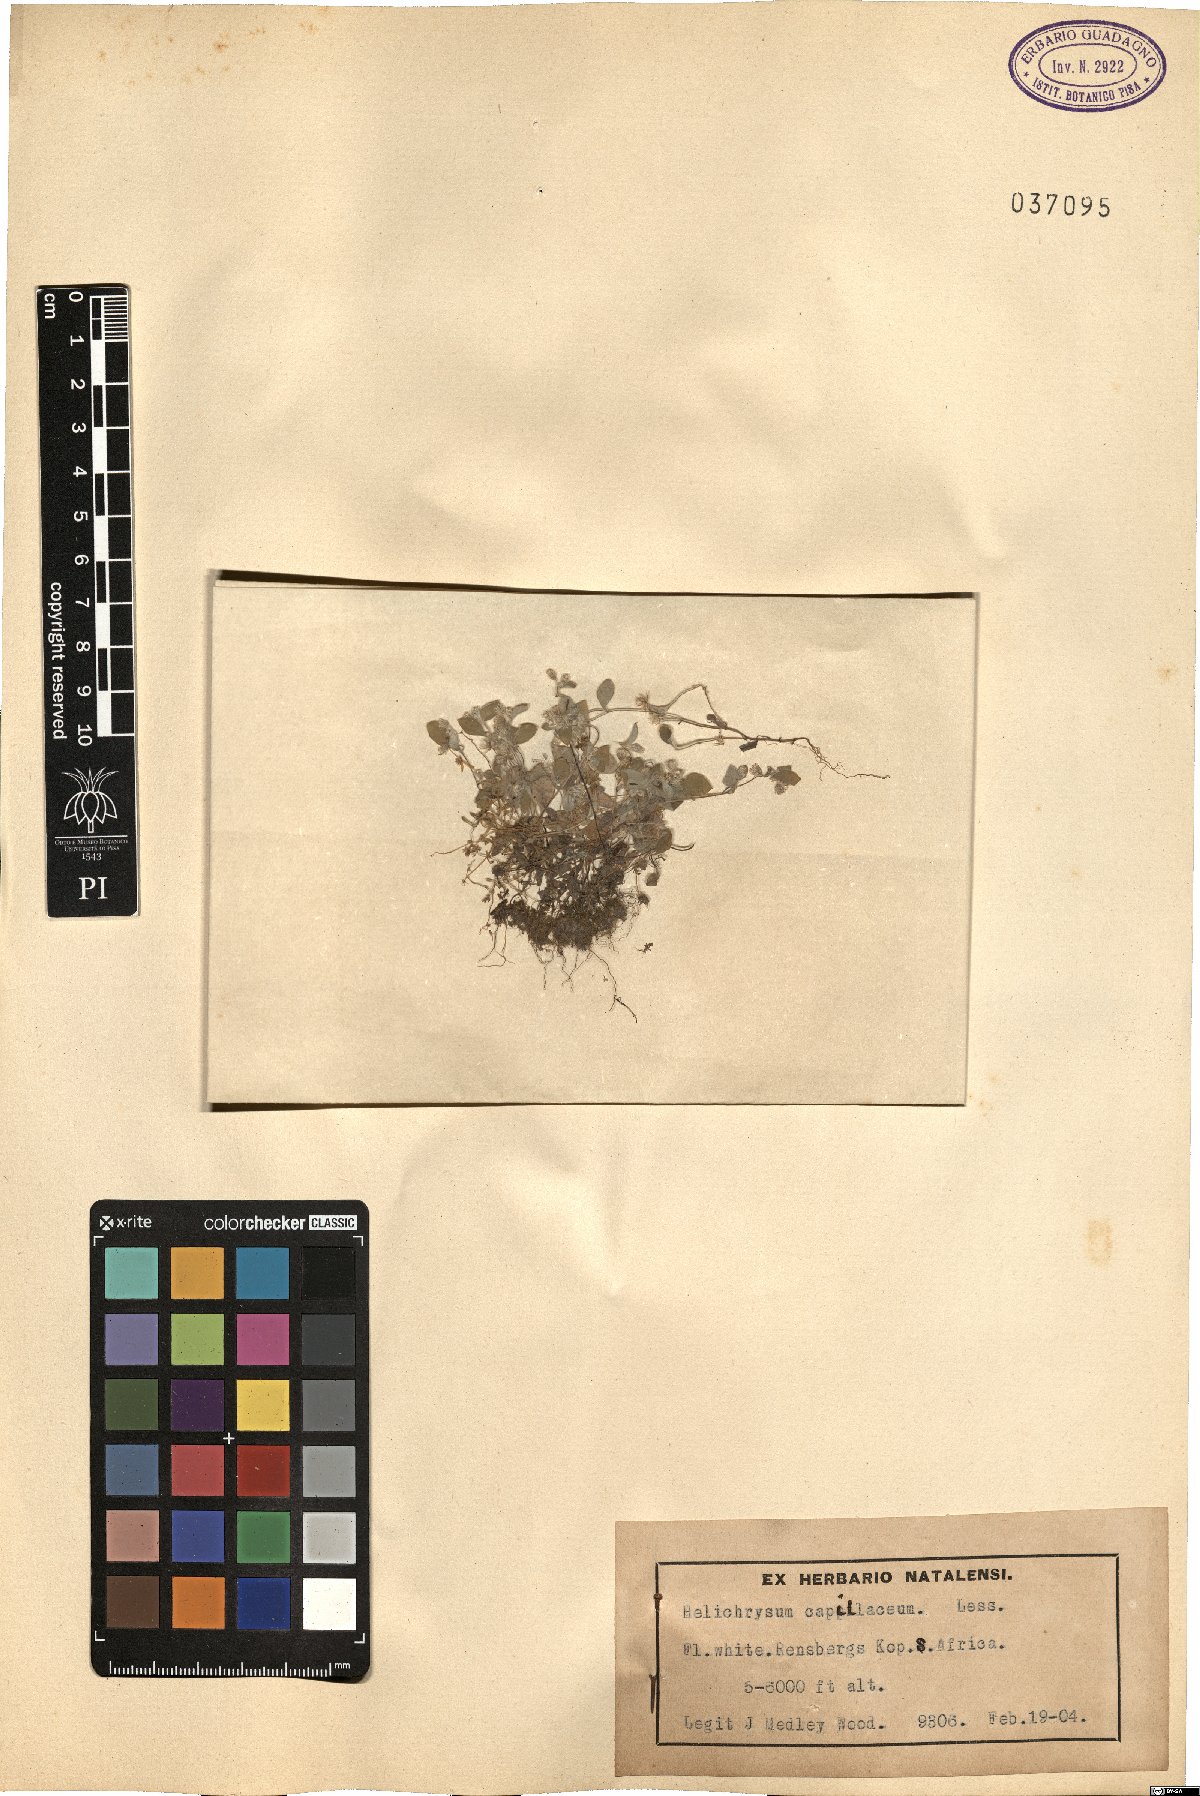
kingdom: Plantae
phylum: Tracheophyta
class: Magnoliopsida
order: Asterales
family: Asteraceae
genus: Troglophyton
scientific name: Troglophyton capillaceum
